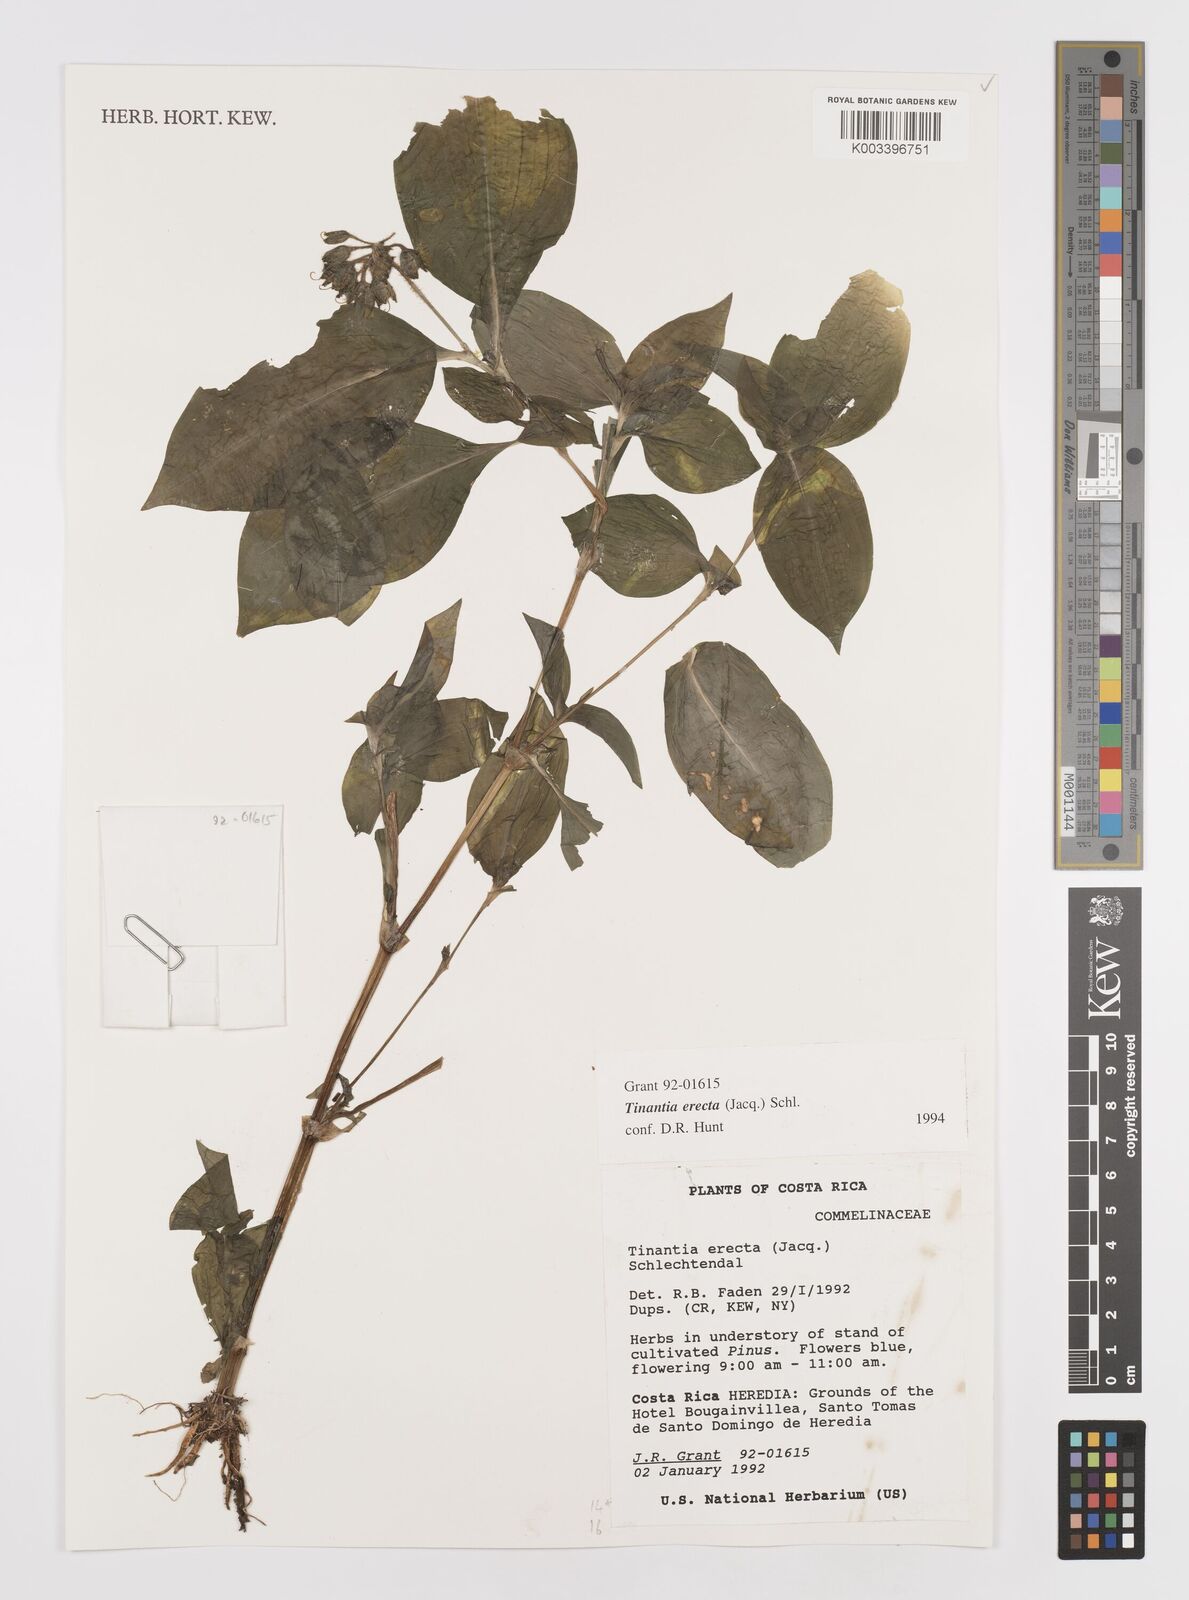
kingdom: Plantae
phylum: Tracheophyta
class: Liliopsida
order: Commelinales
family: Commelinaceae
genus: Tinantia
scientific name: Tinantia erecta
